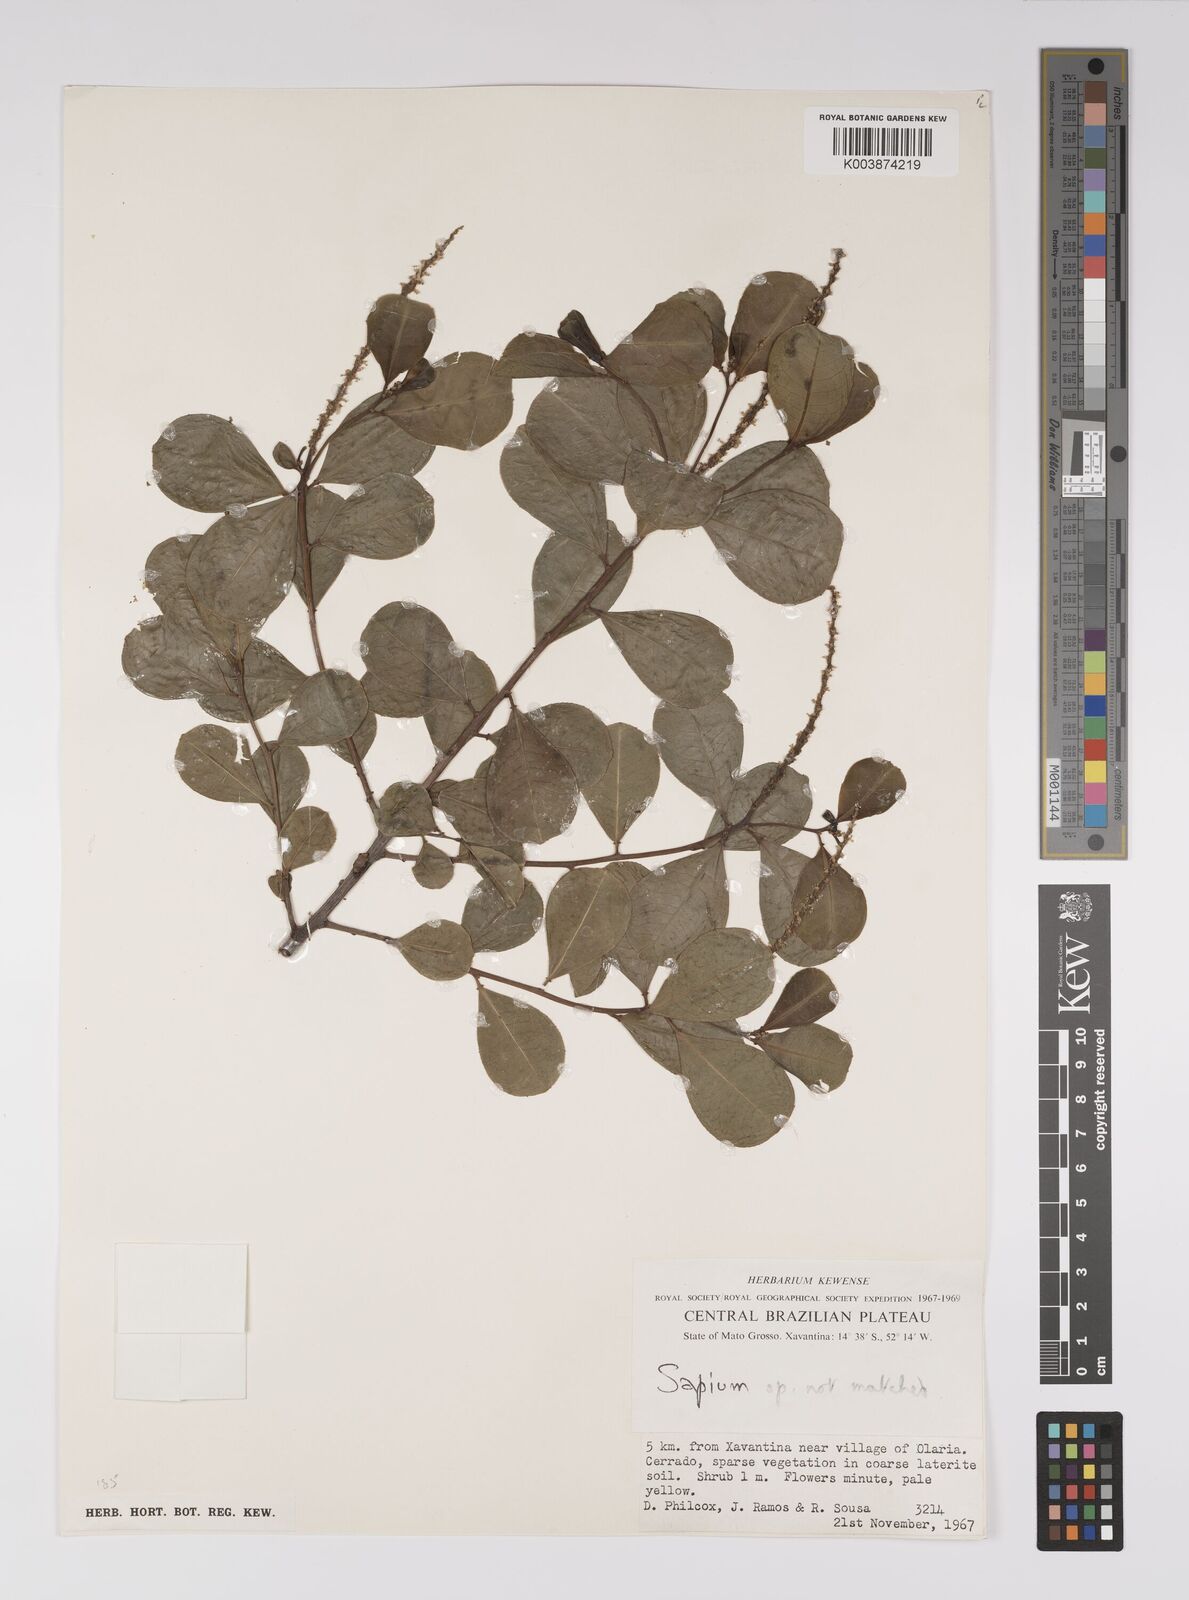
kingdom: Plantae
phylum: Tracheophyta
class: Magnoliopsida
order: Malpighiales
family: Euphorbiaceae
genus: Sapium
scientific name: Sapium
